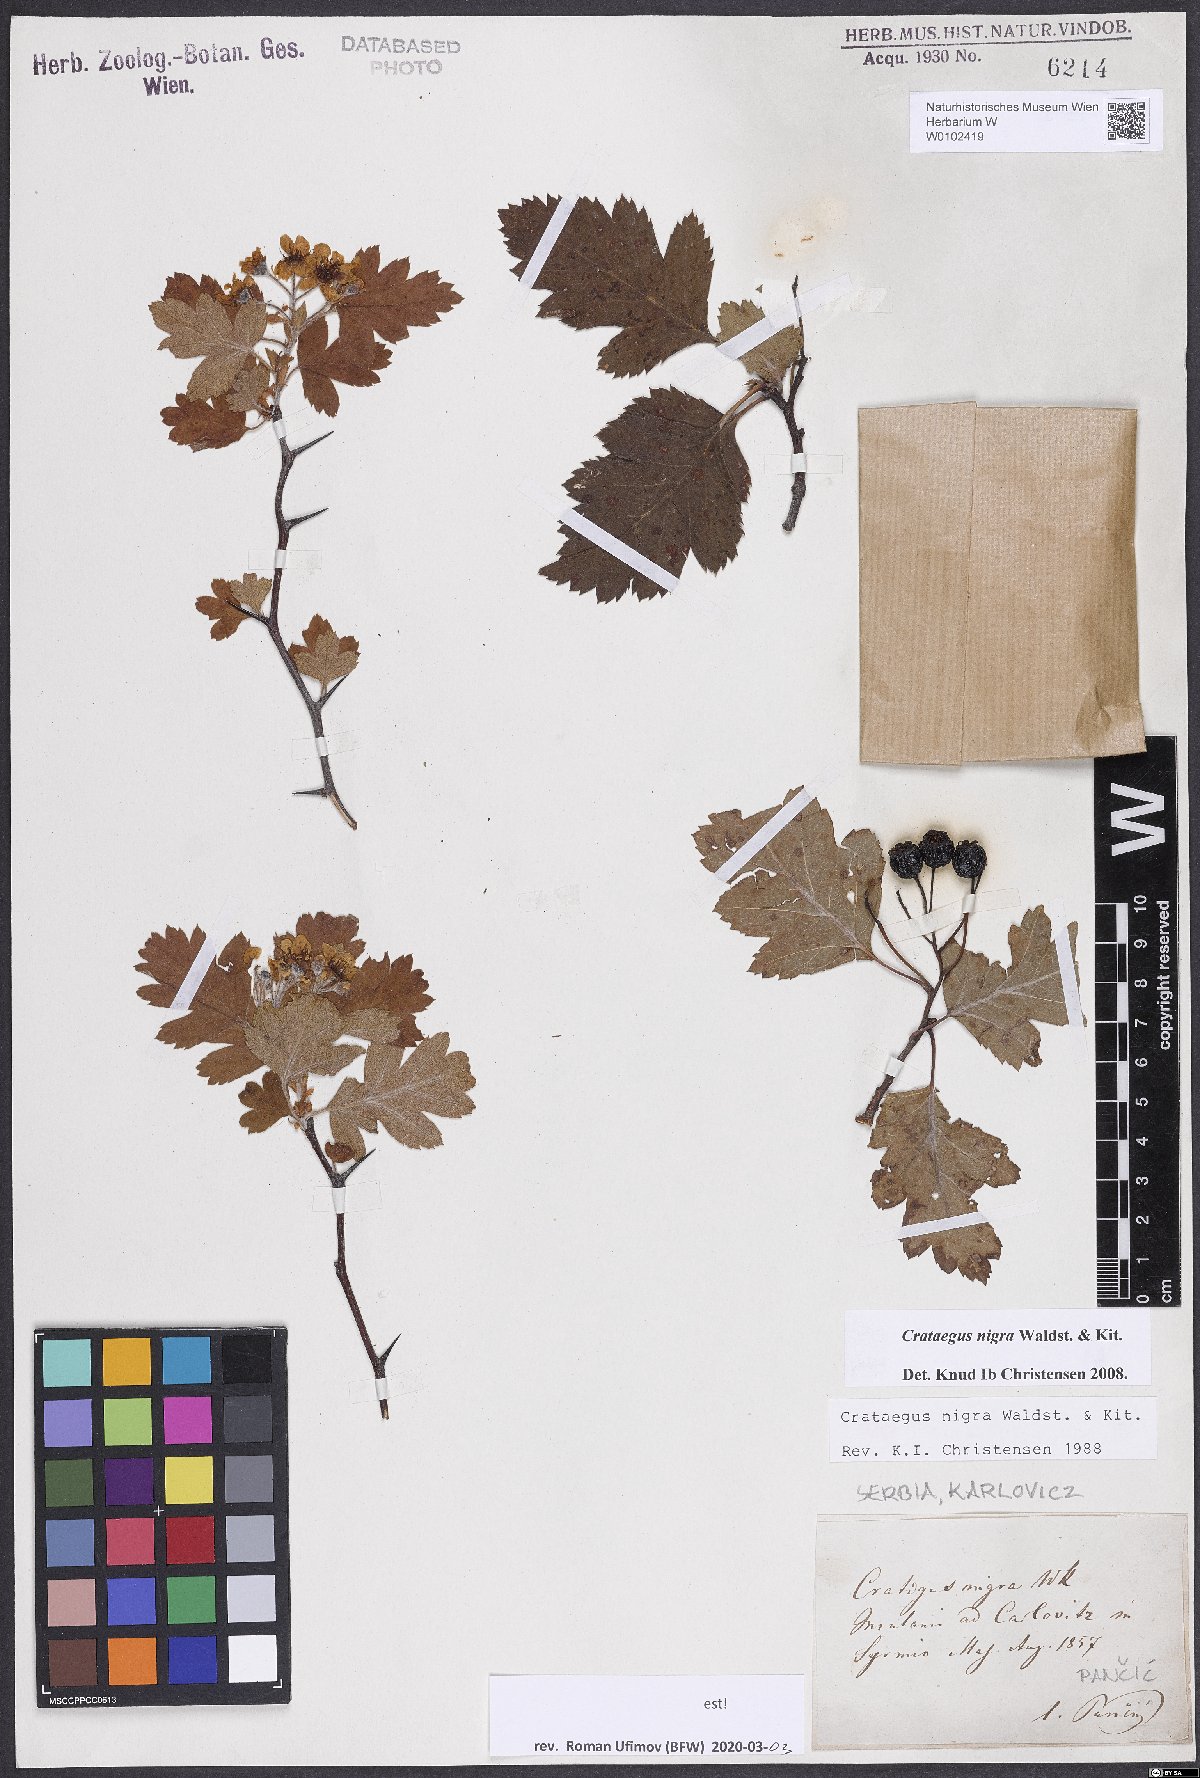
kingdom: Plantae
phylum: Tracheophyta
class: Magnoliopsida
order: Rosales
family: Rosaceae
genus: Crataegus
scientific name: Crataegus nigra
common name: Hungarian thorn
